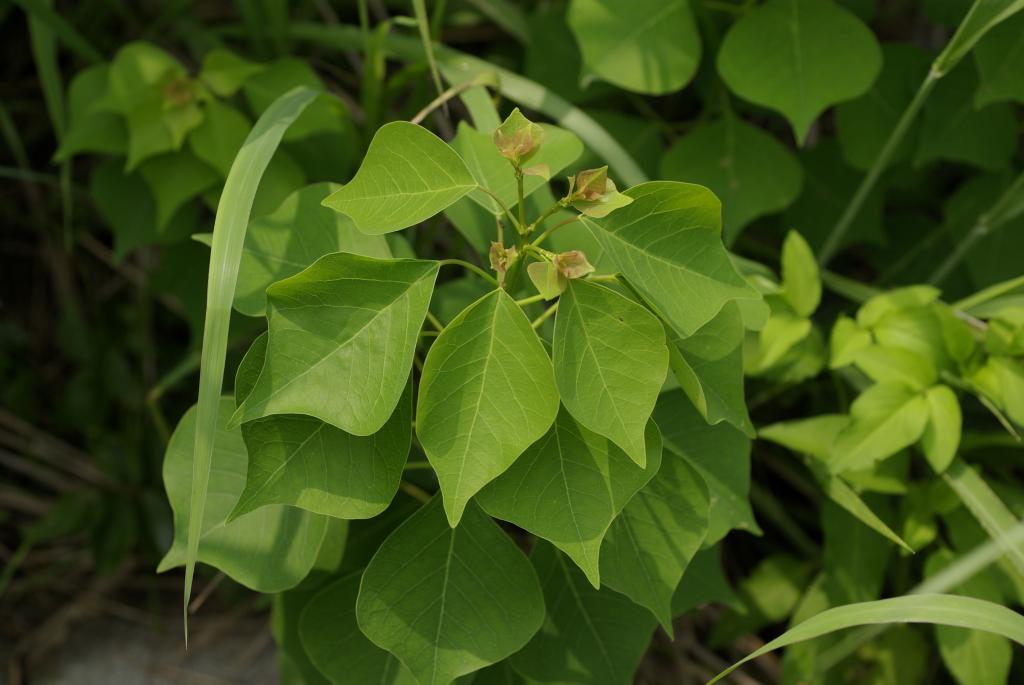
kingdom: Plantae
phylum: Tracheophyta
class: Magnoliopsida
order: Malpighiales
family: Euphorbiaceae
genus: Triadica
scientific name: Triadica sebifera
